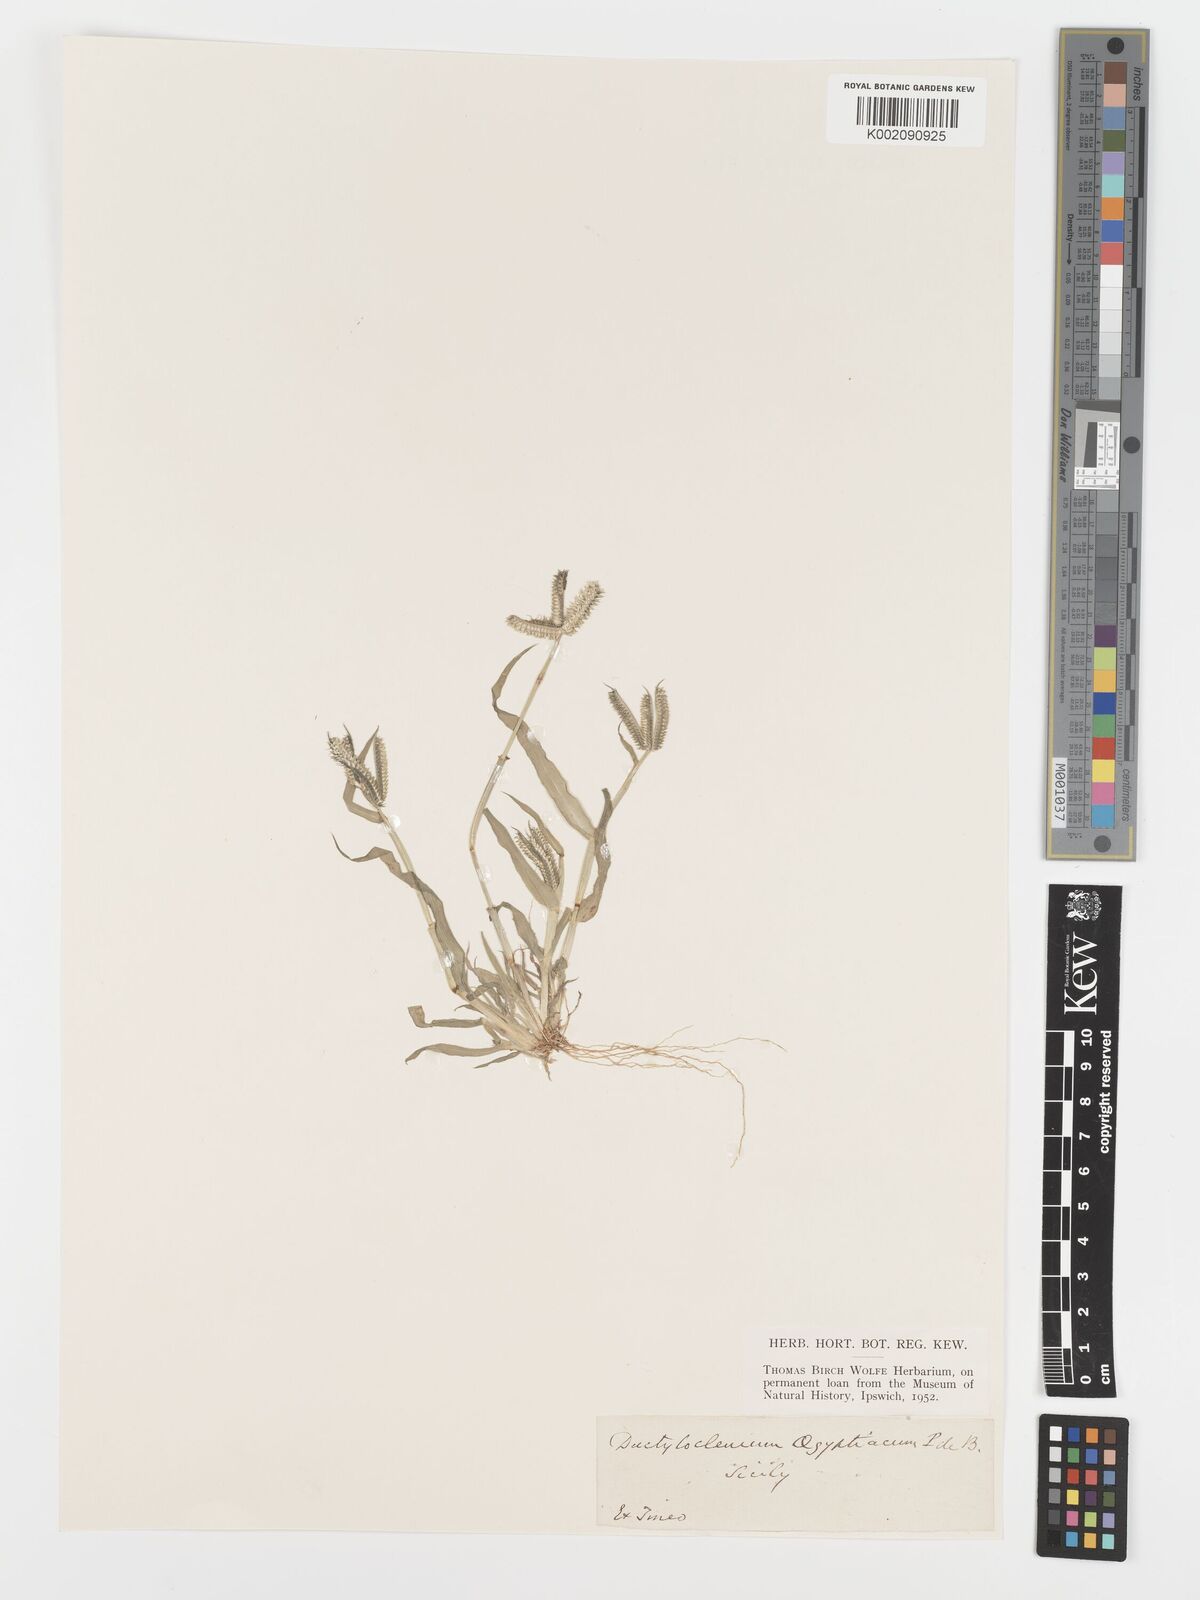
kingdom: Plantae
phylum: Tracheophyta
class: Liliopsida
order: Poales
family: Poaceae
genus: Dactyloctenium
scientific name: Dactyloctenium aegyptium
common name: Egyptian grass
